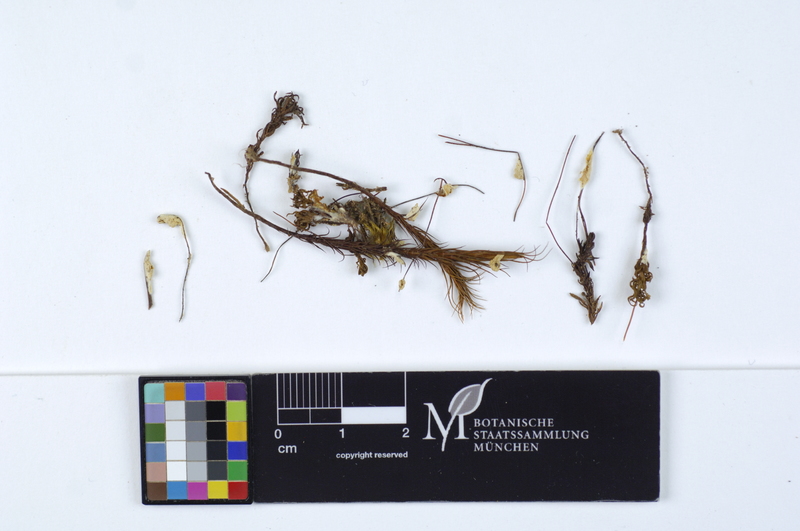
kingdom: Fungi
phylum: Basidiomycota
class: Agaricomycetes
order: Hymenochaetales
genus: Muscinupta
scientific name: Muscinupta laevis
